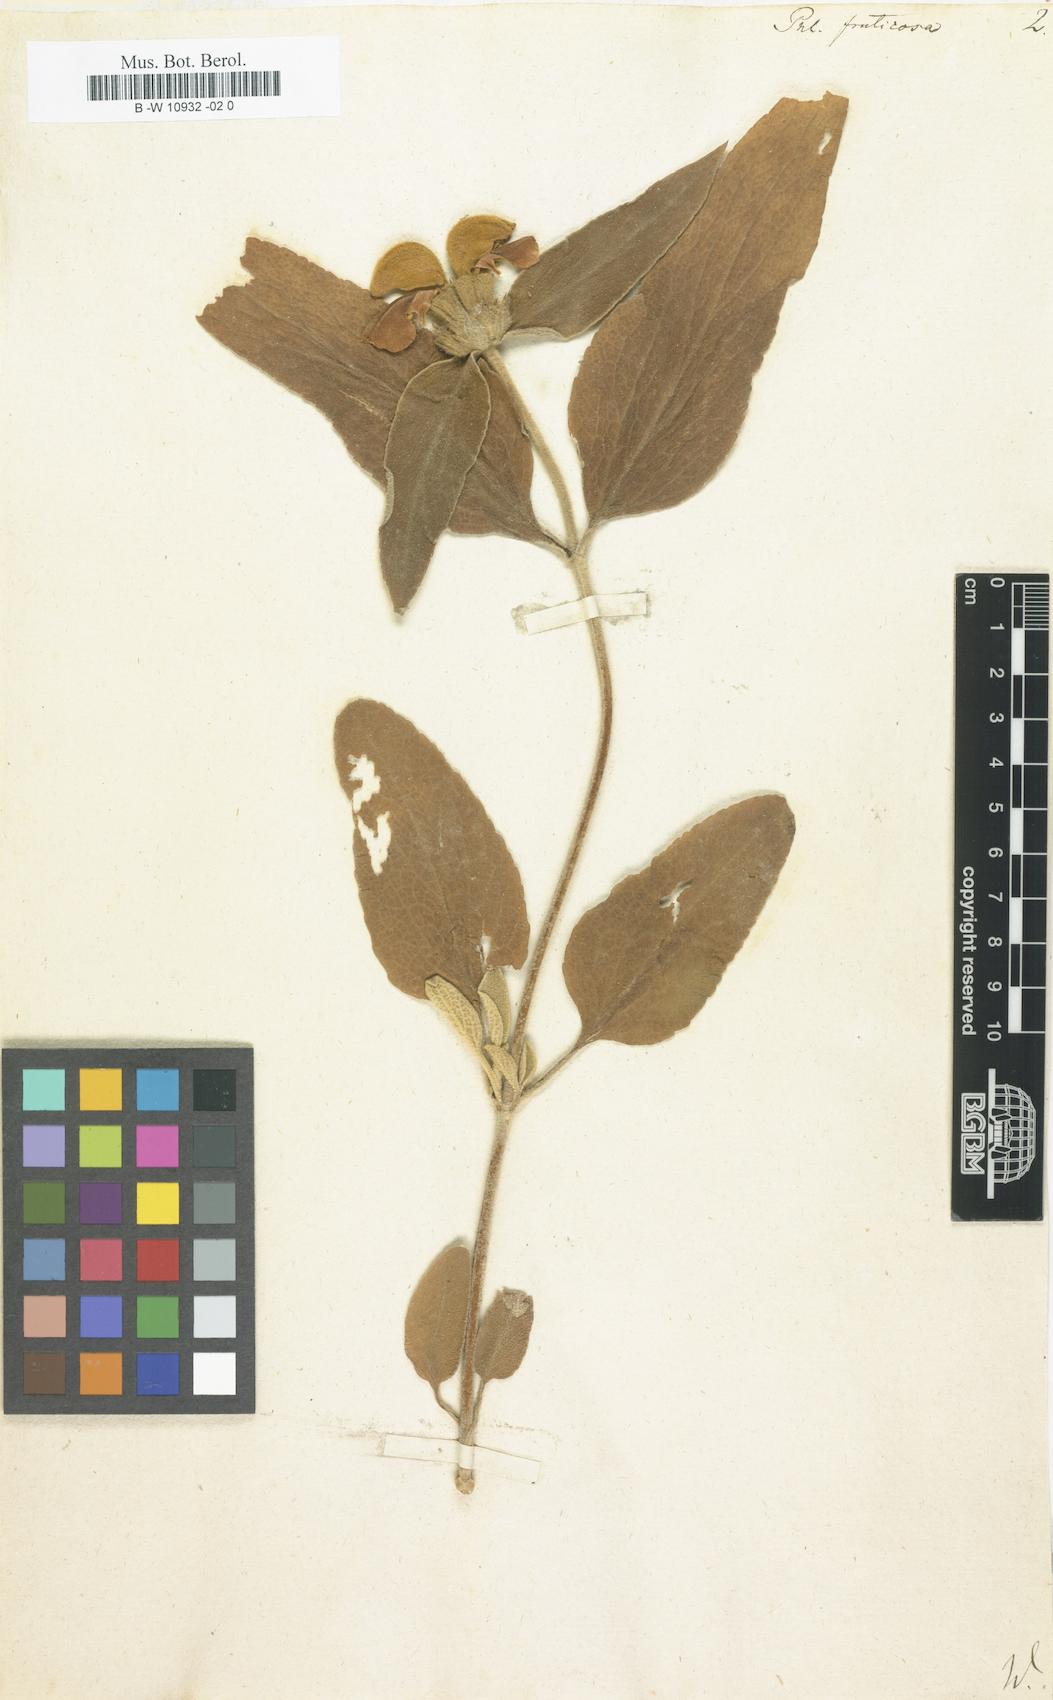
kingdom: Plantae
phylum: Tracheophyta
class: Magnoliopsida
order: Lamiales
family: Lamiaceae
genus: Phlomis
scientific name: Phlomis fruticosa
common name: Jerusalem sage
